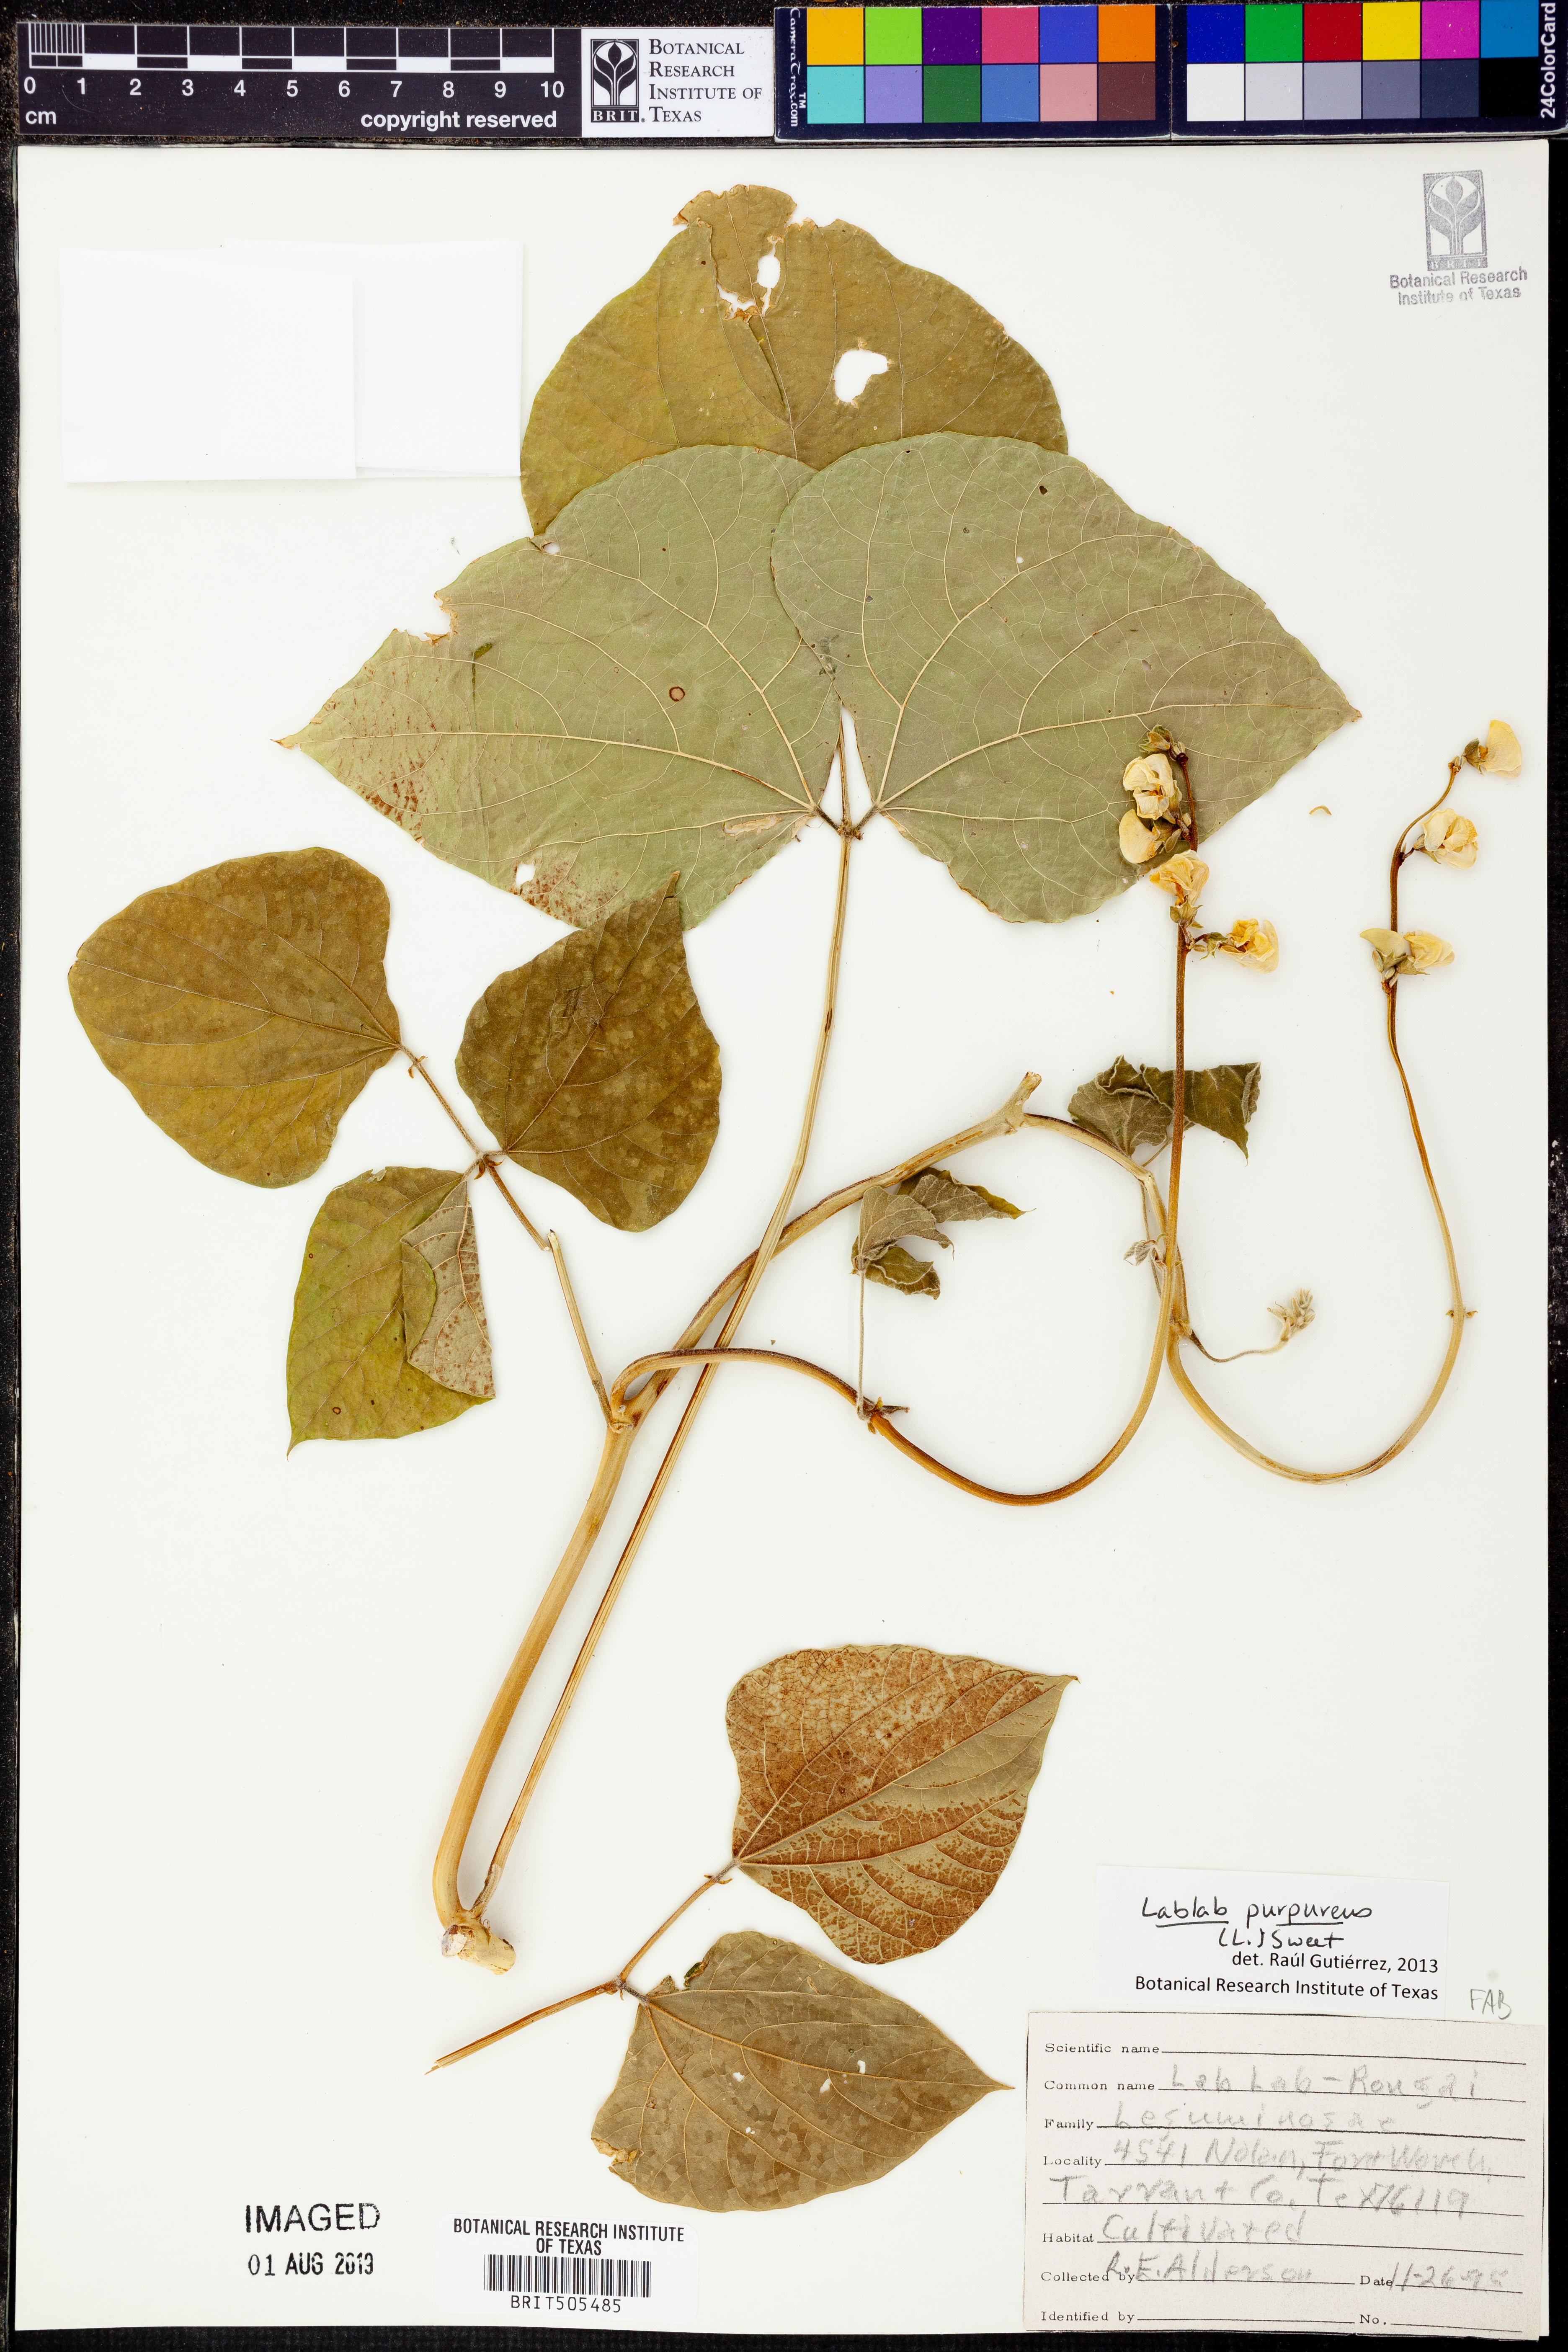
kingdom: Plantae
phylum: Tracheophyta
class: Magnoliopsida
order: Fabales
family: Fabaceae
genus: Lablab
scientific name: Lablab purpureus
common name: Lablab-bean
